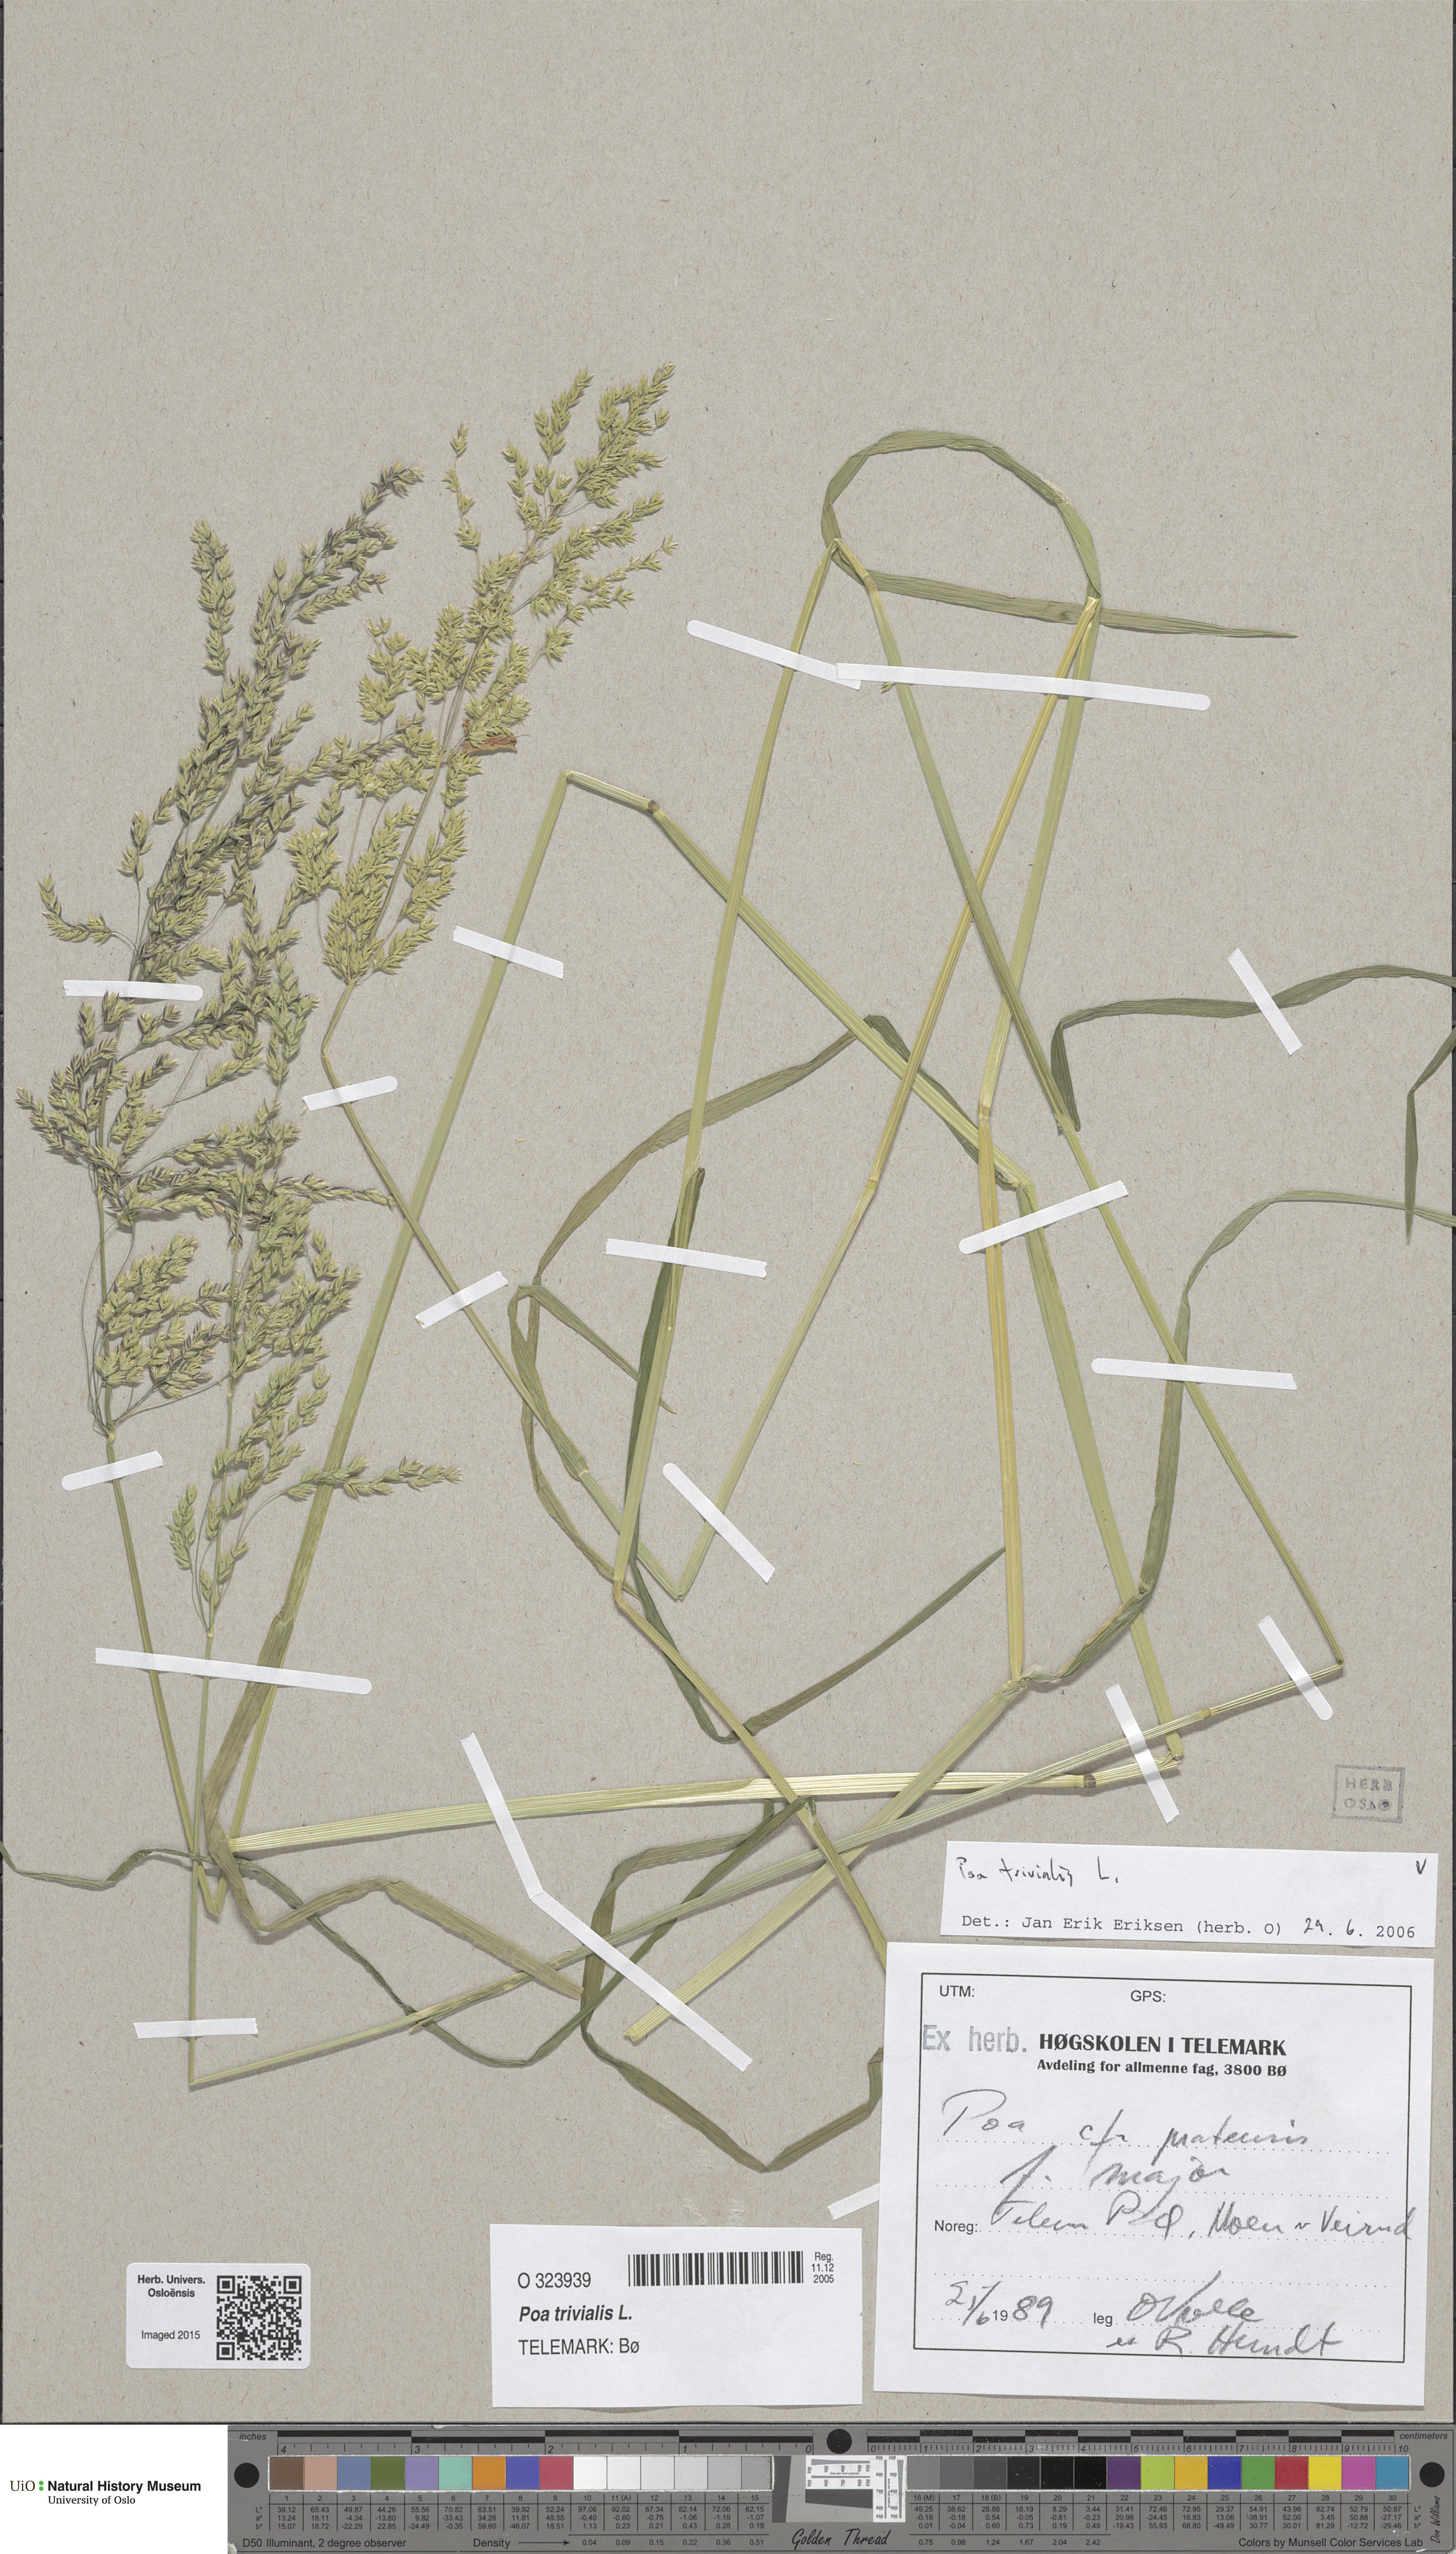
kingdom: Plantae
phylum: Tracheophyta
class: Liliopsida
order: Poales
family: Poaceae
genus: Poa
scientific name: Poa trivialis
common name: Rough bluegrass
